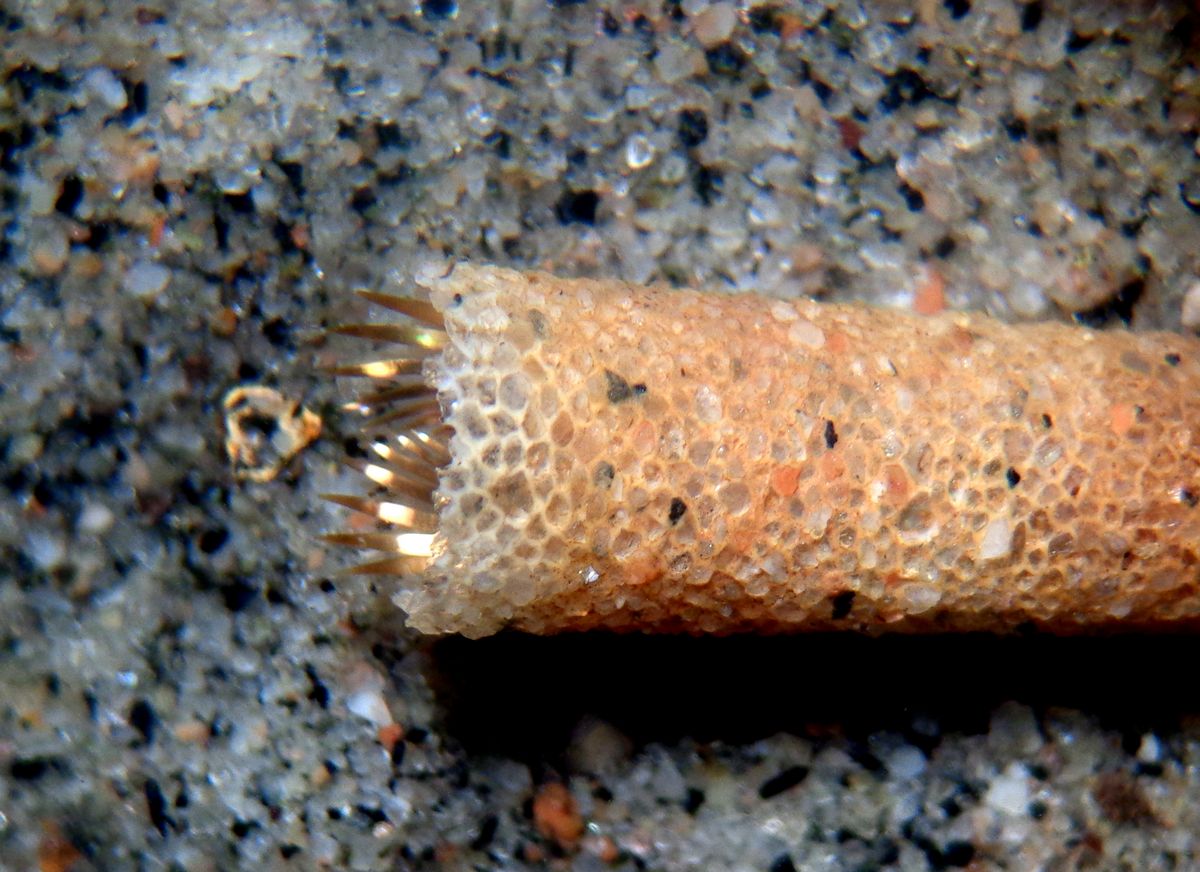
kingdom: Animalia
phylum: Annelida
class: Polychaeta
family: Pectinariidae
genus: Lagis
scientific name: Lagis koreni
